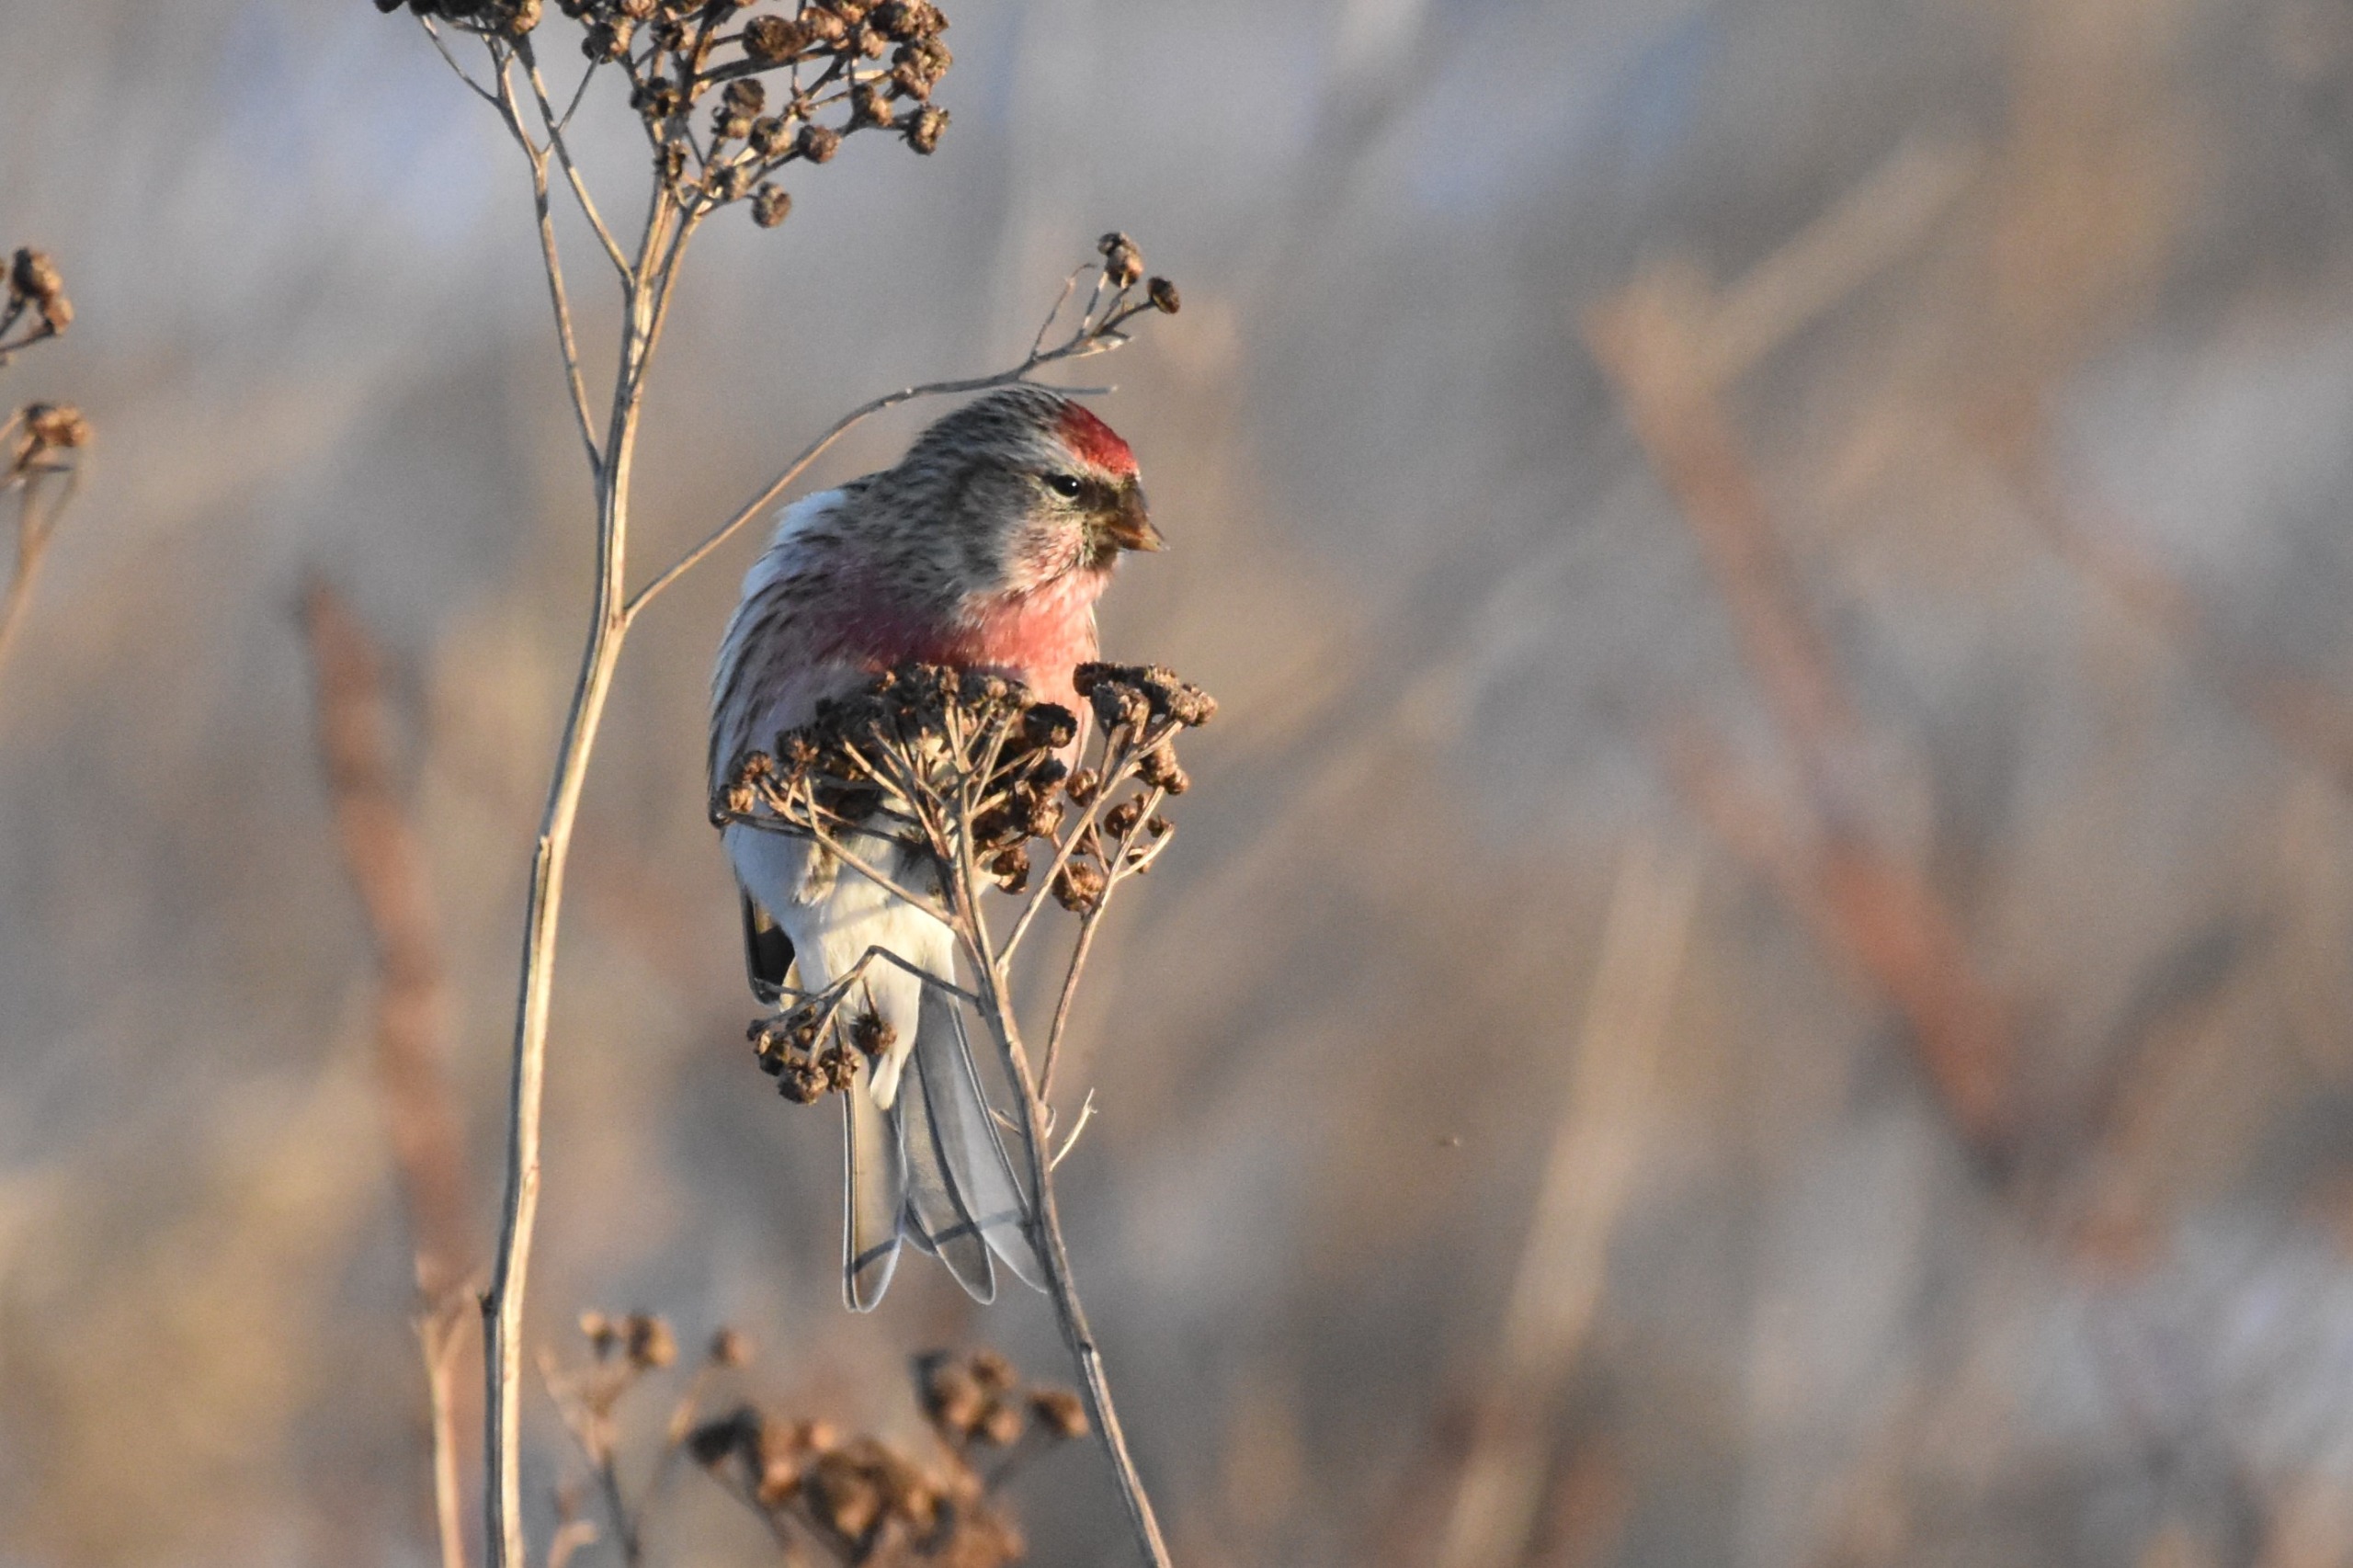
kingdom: Animalia
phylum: Chordata
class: Aves
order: Passeriformes
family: Fringillidae
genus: Acanthis
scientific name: Acanthis flammea
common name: Nordlig gråsisken
